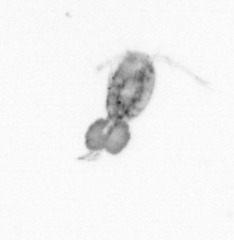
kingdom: Animalia
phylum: Arthropoda
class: Copepoda
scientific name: Copepoda
